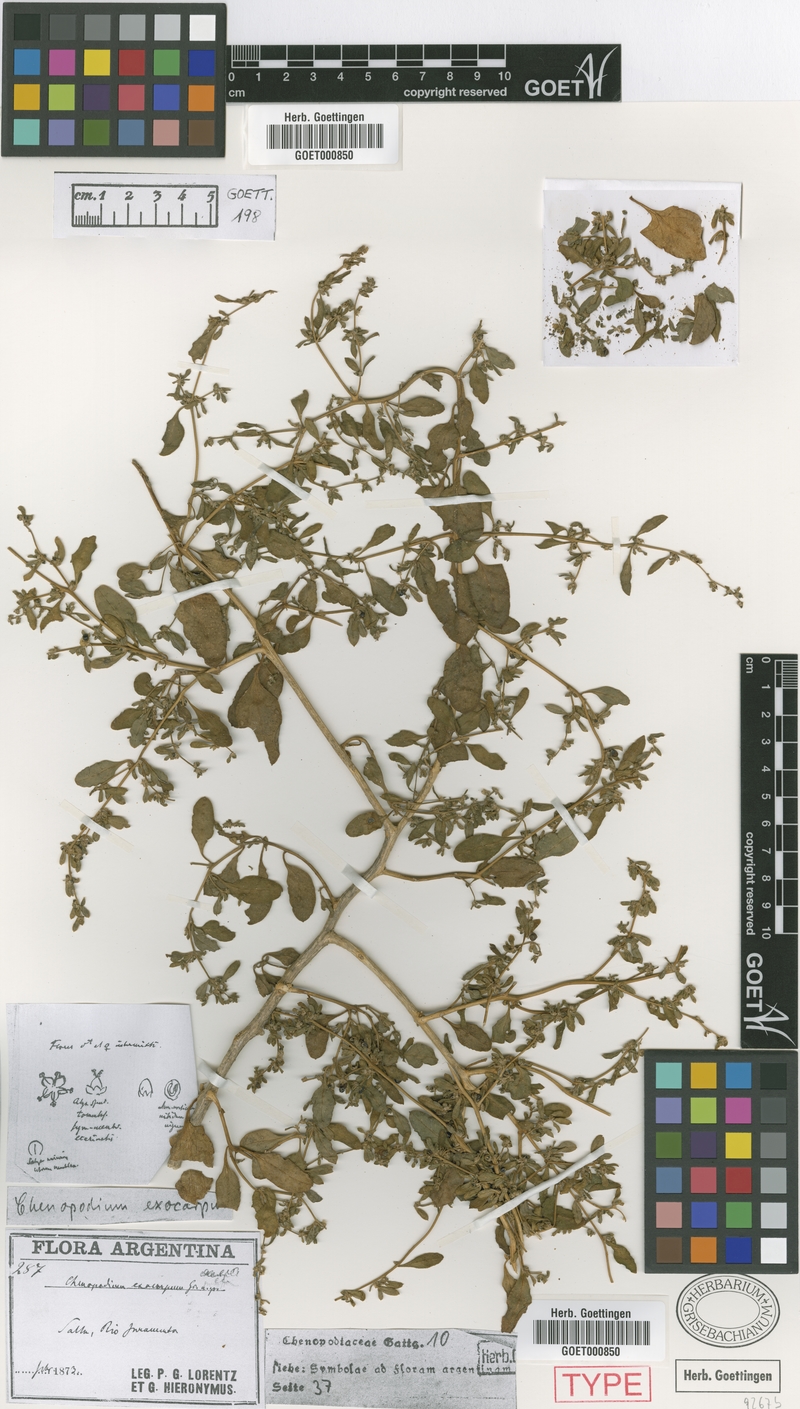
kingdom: Plantae
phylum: Tracheophyta
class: Magnoliopsida
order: Caryophyllales
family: Amaranthaceae
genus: Holmbergia
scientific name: Holmbergia tweedii
